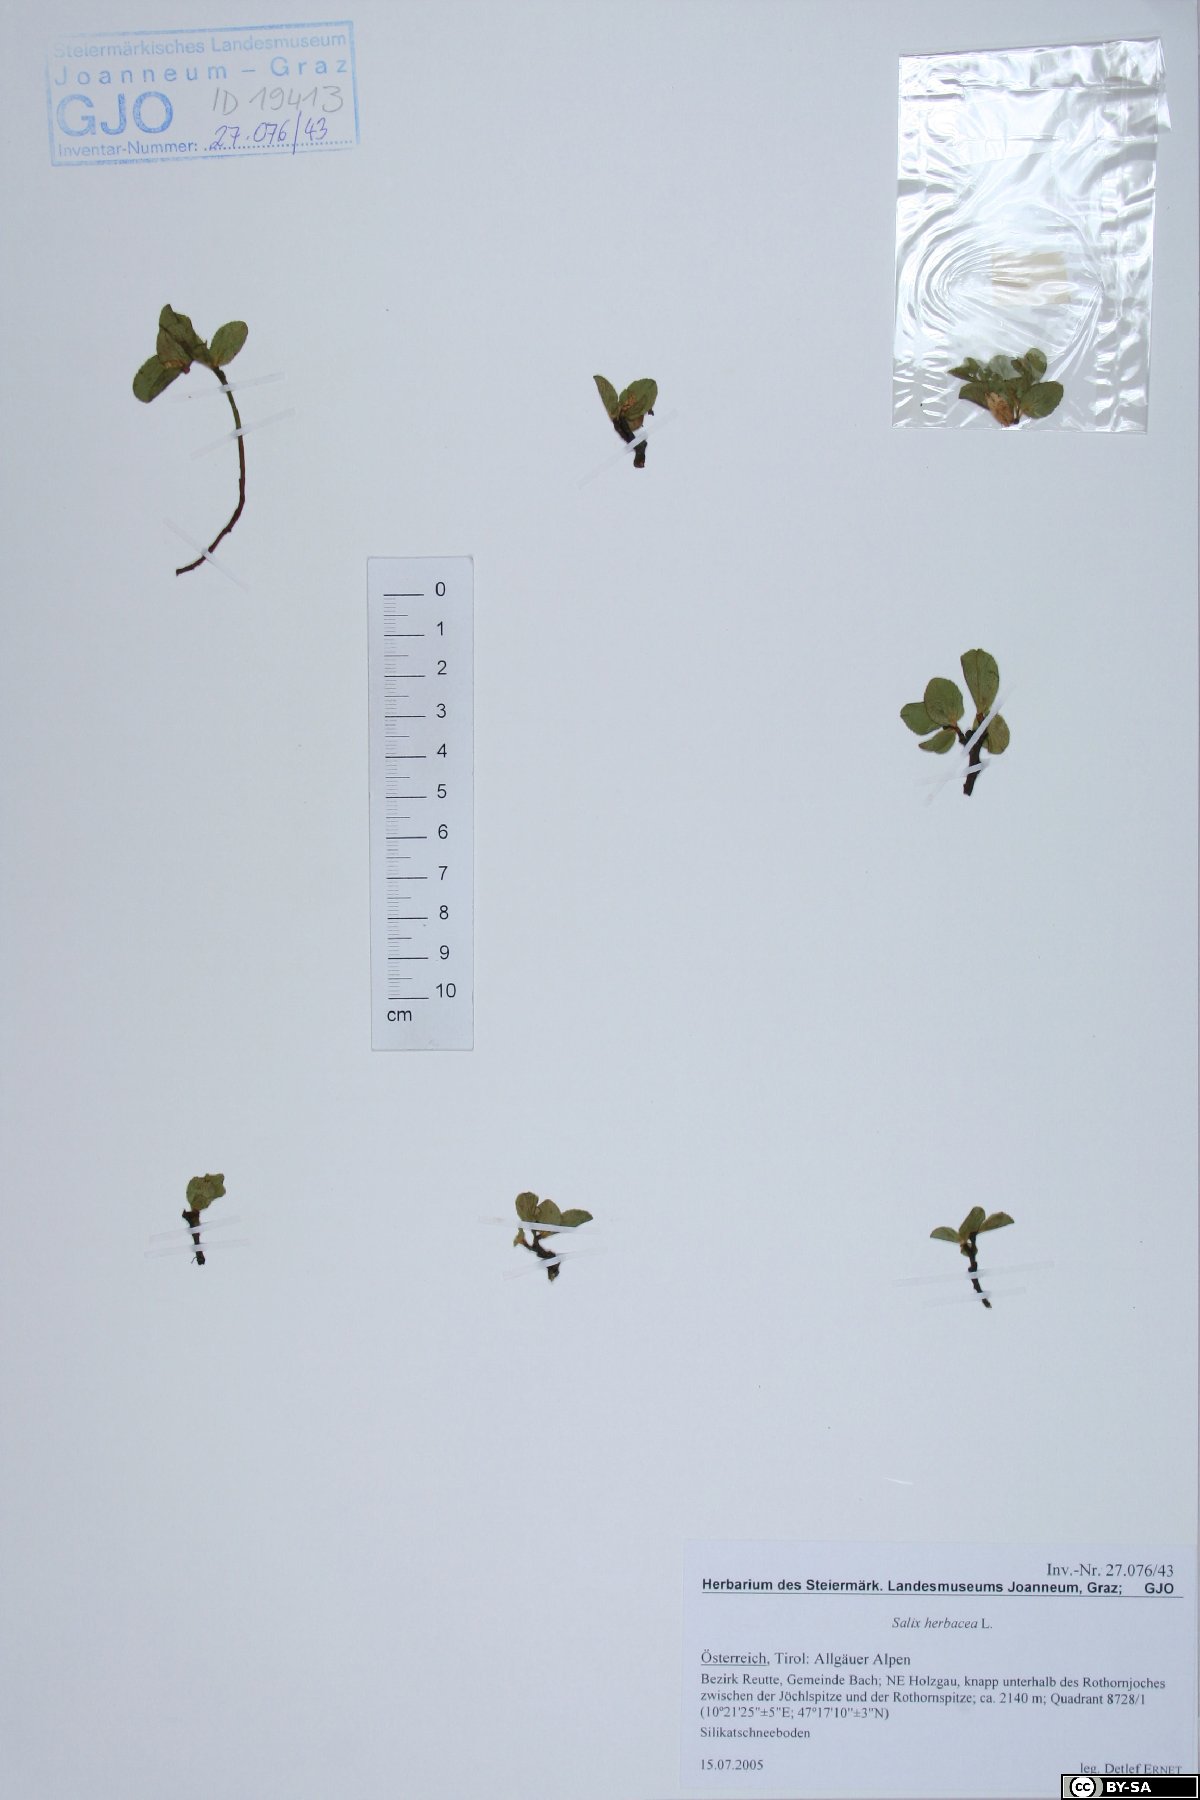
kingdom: Plantae
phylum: Tracheophyta
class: Magnoliopsida
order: Malpighiales
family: Salicaceae
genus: Salix
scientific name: Salix herbacea
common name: Dwarf willow
